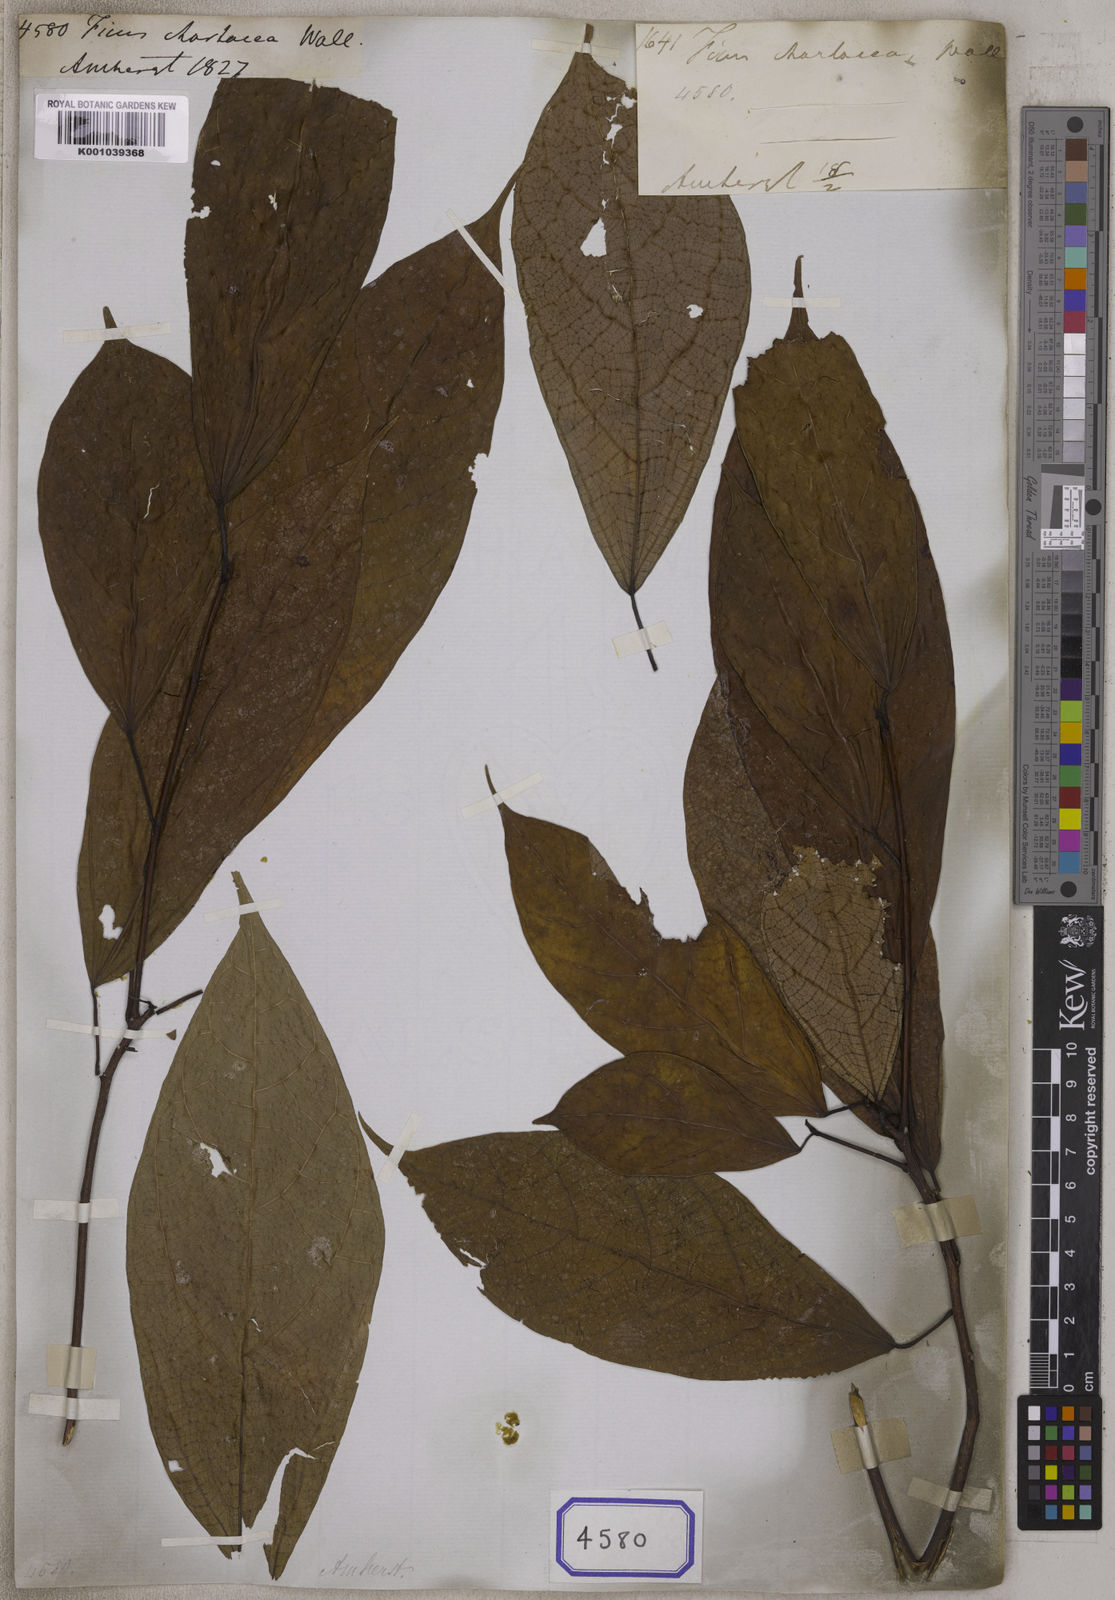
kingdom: Plantae
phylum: Tracheophyta
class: Magnoliopsida
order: Rosales
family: Moraceae
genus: Ficus
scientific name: Ficus
